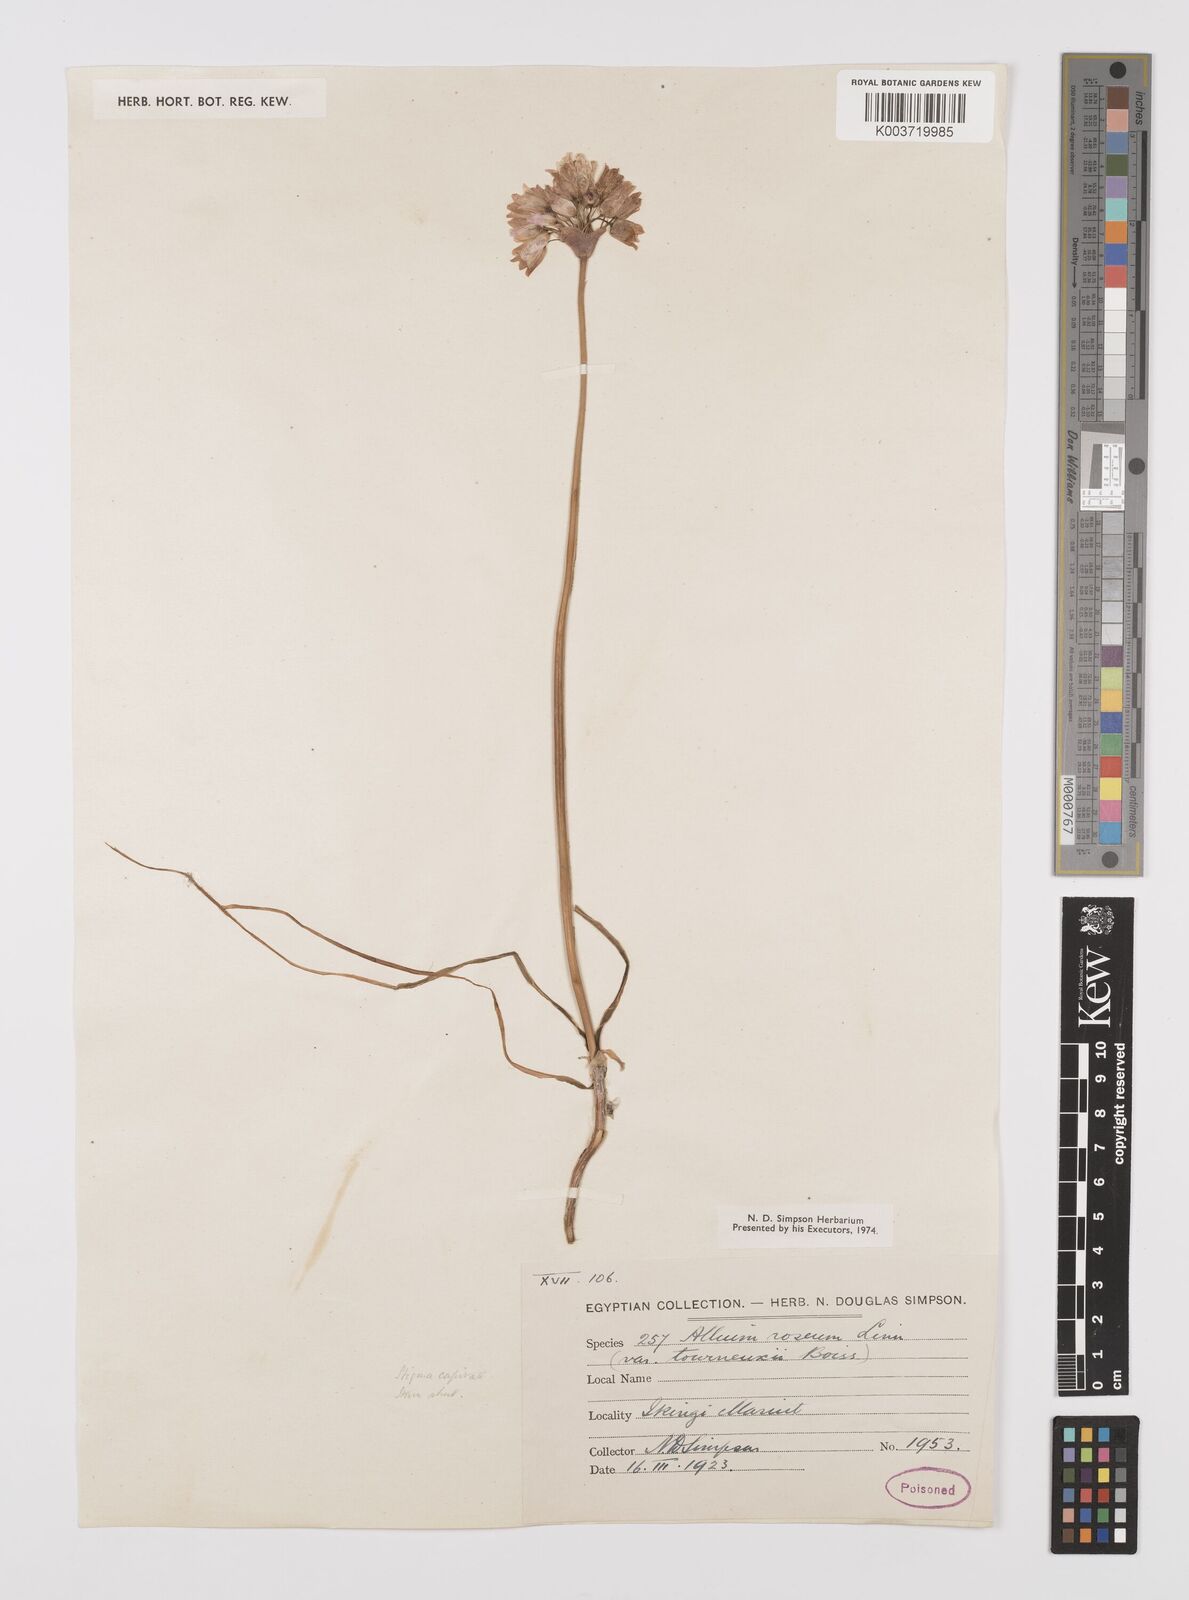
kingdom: Plantae
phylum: Tracheophyta
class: Liliopsida
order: Asparagales
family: Amaryllidaceae
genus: Allium
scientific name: Allium roseum
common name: Rosy garlic
